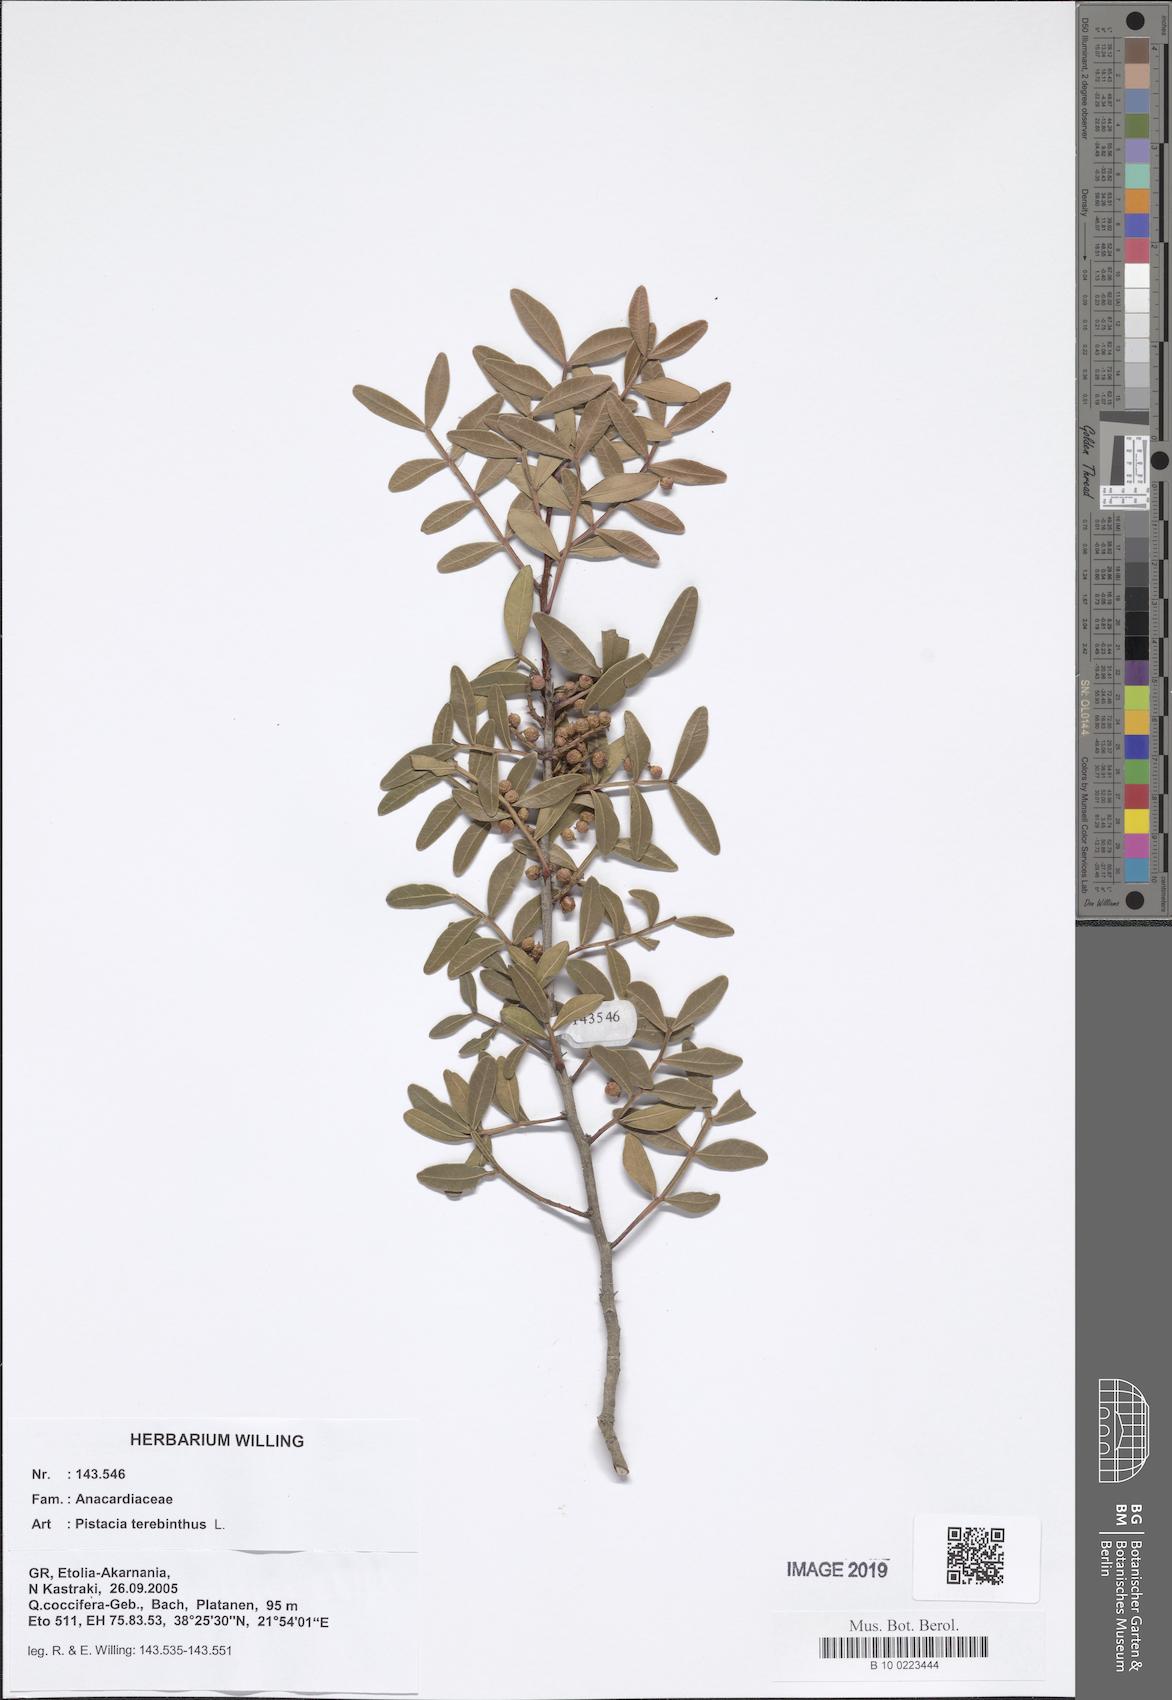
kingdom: Plantae
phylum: Tracheophyta
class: Magnoliopsida
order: Sapindales
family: Anacardiaceae
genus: Pistacia
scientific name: Pistacia terebinthus
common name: Terebinth
